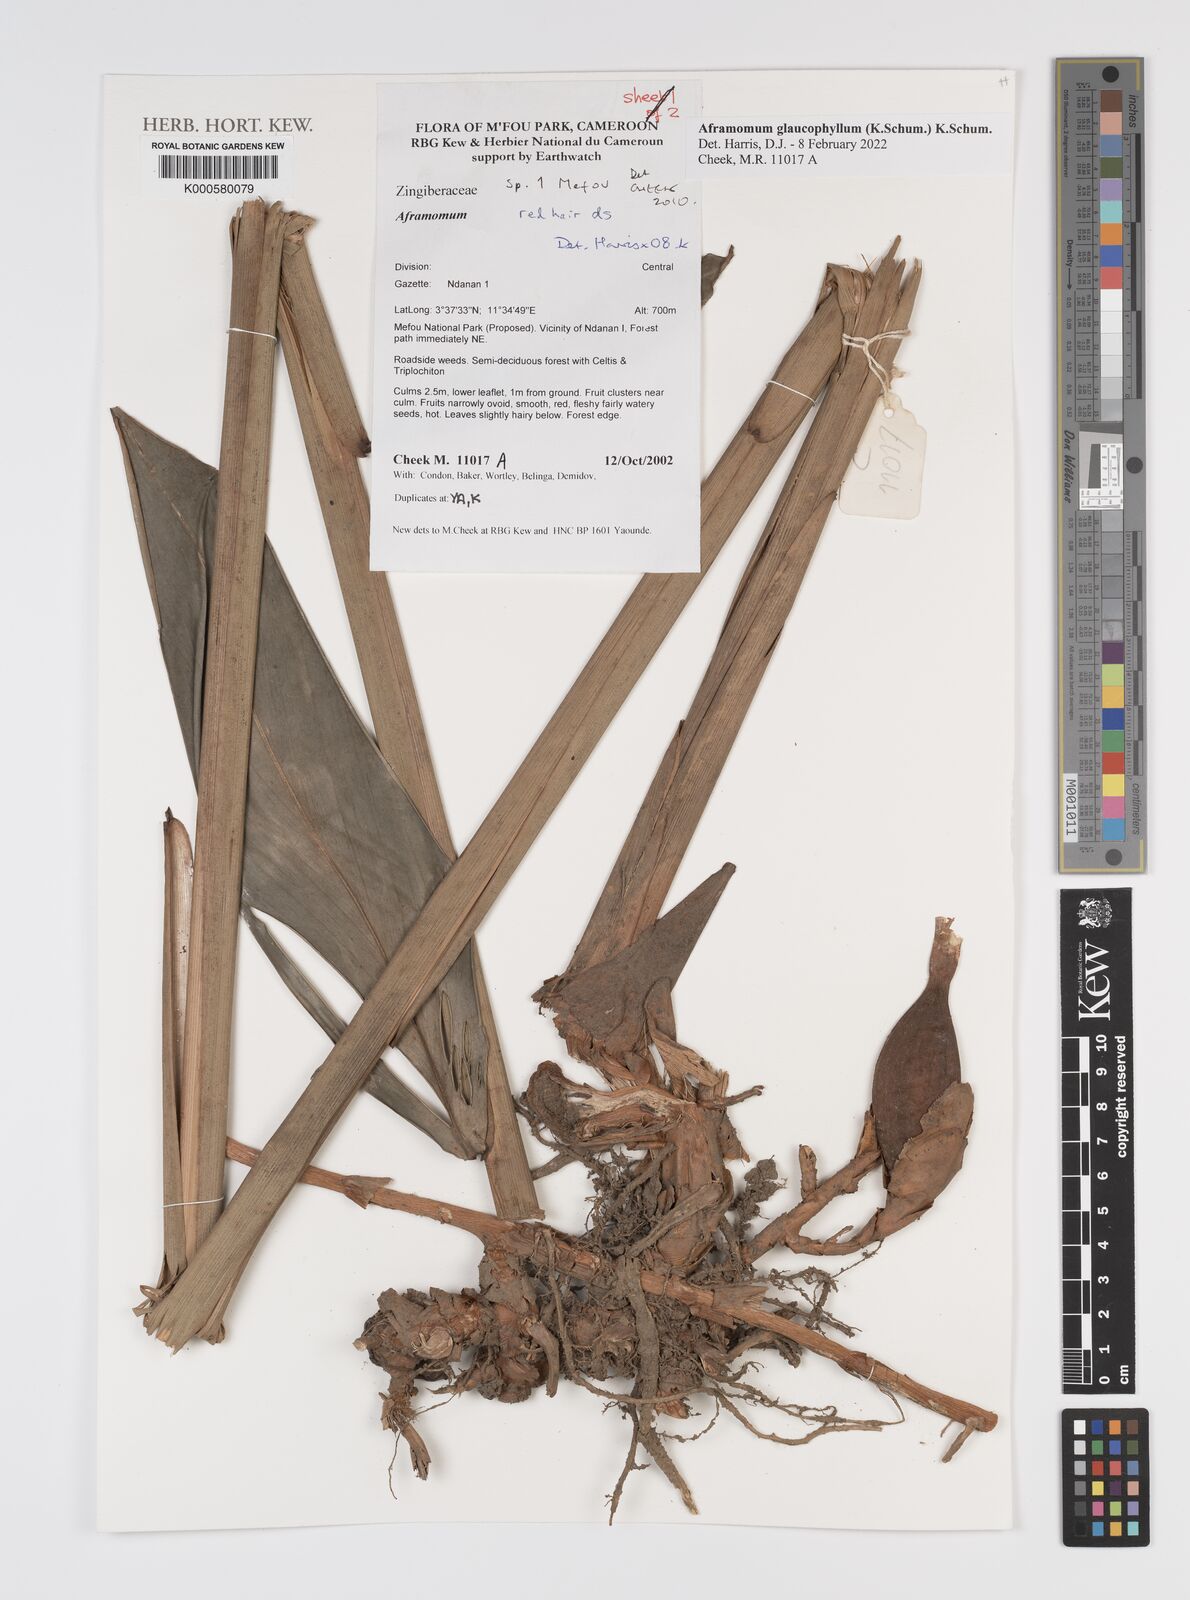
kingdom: Plantae
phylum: Tracheophyta
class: Liliopsida
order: Zingiberales
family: Zingiberaceae
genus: Aframomum
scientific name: Aframomum
